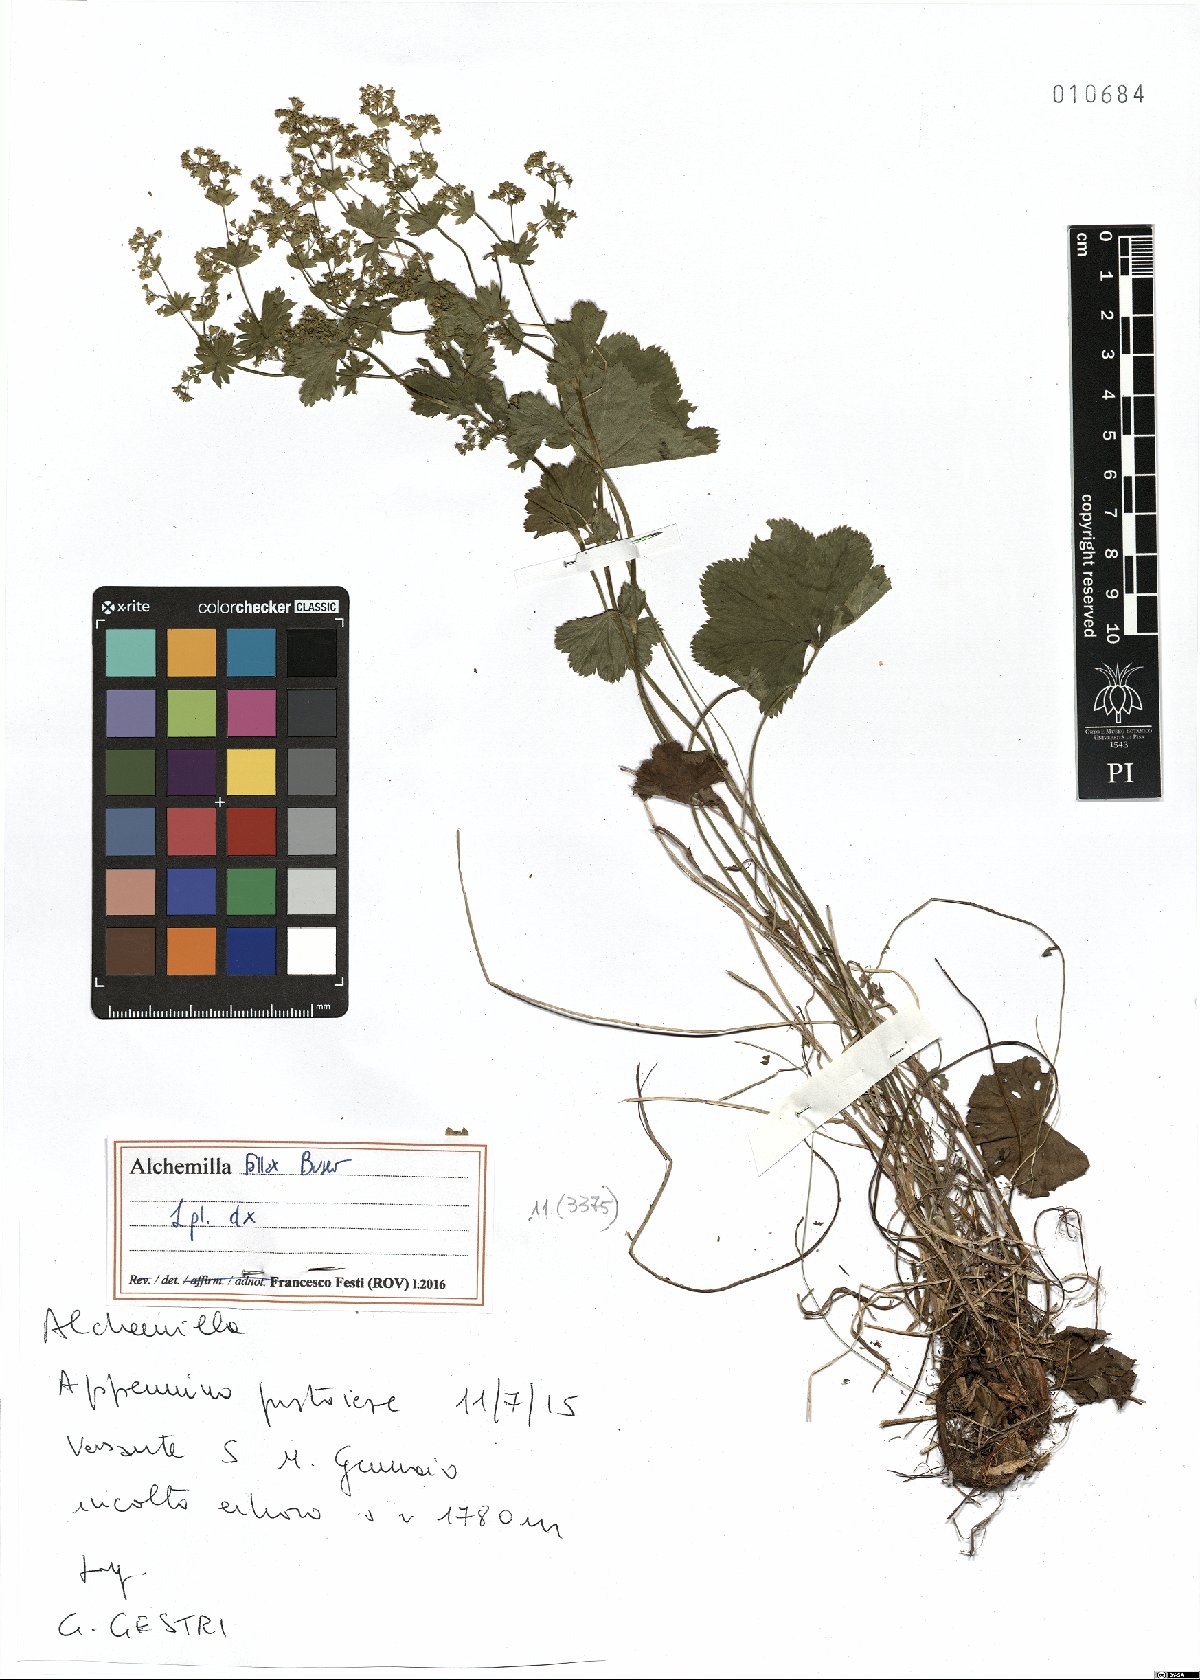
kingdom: Plantae
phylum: Tracheophyta
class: Magnoliopsida
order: Rosales
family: Rosaceae
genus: Alchemilla
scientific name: Alchemilla fallax
